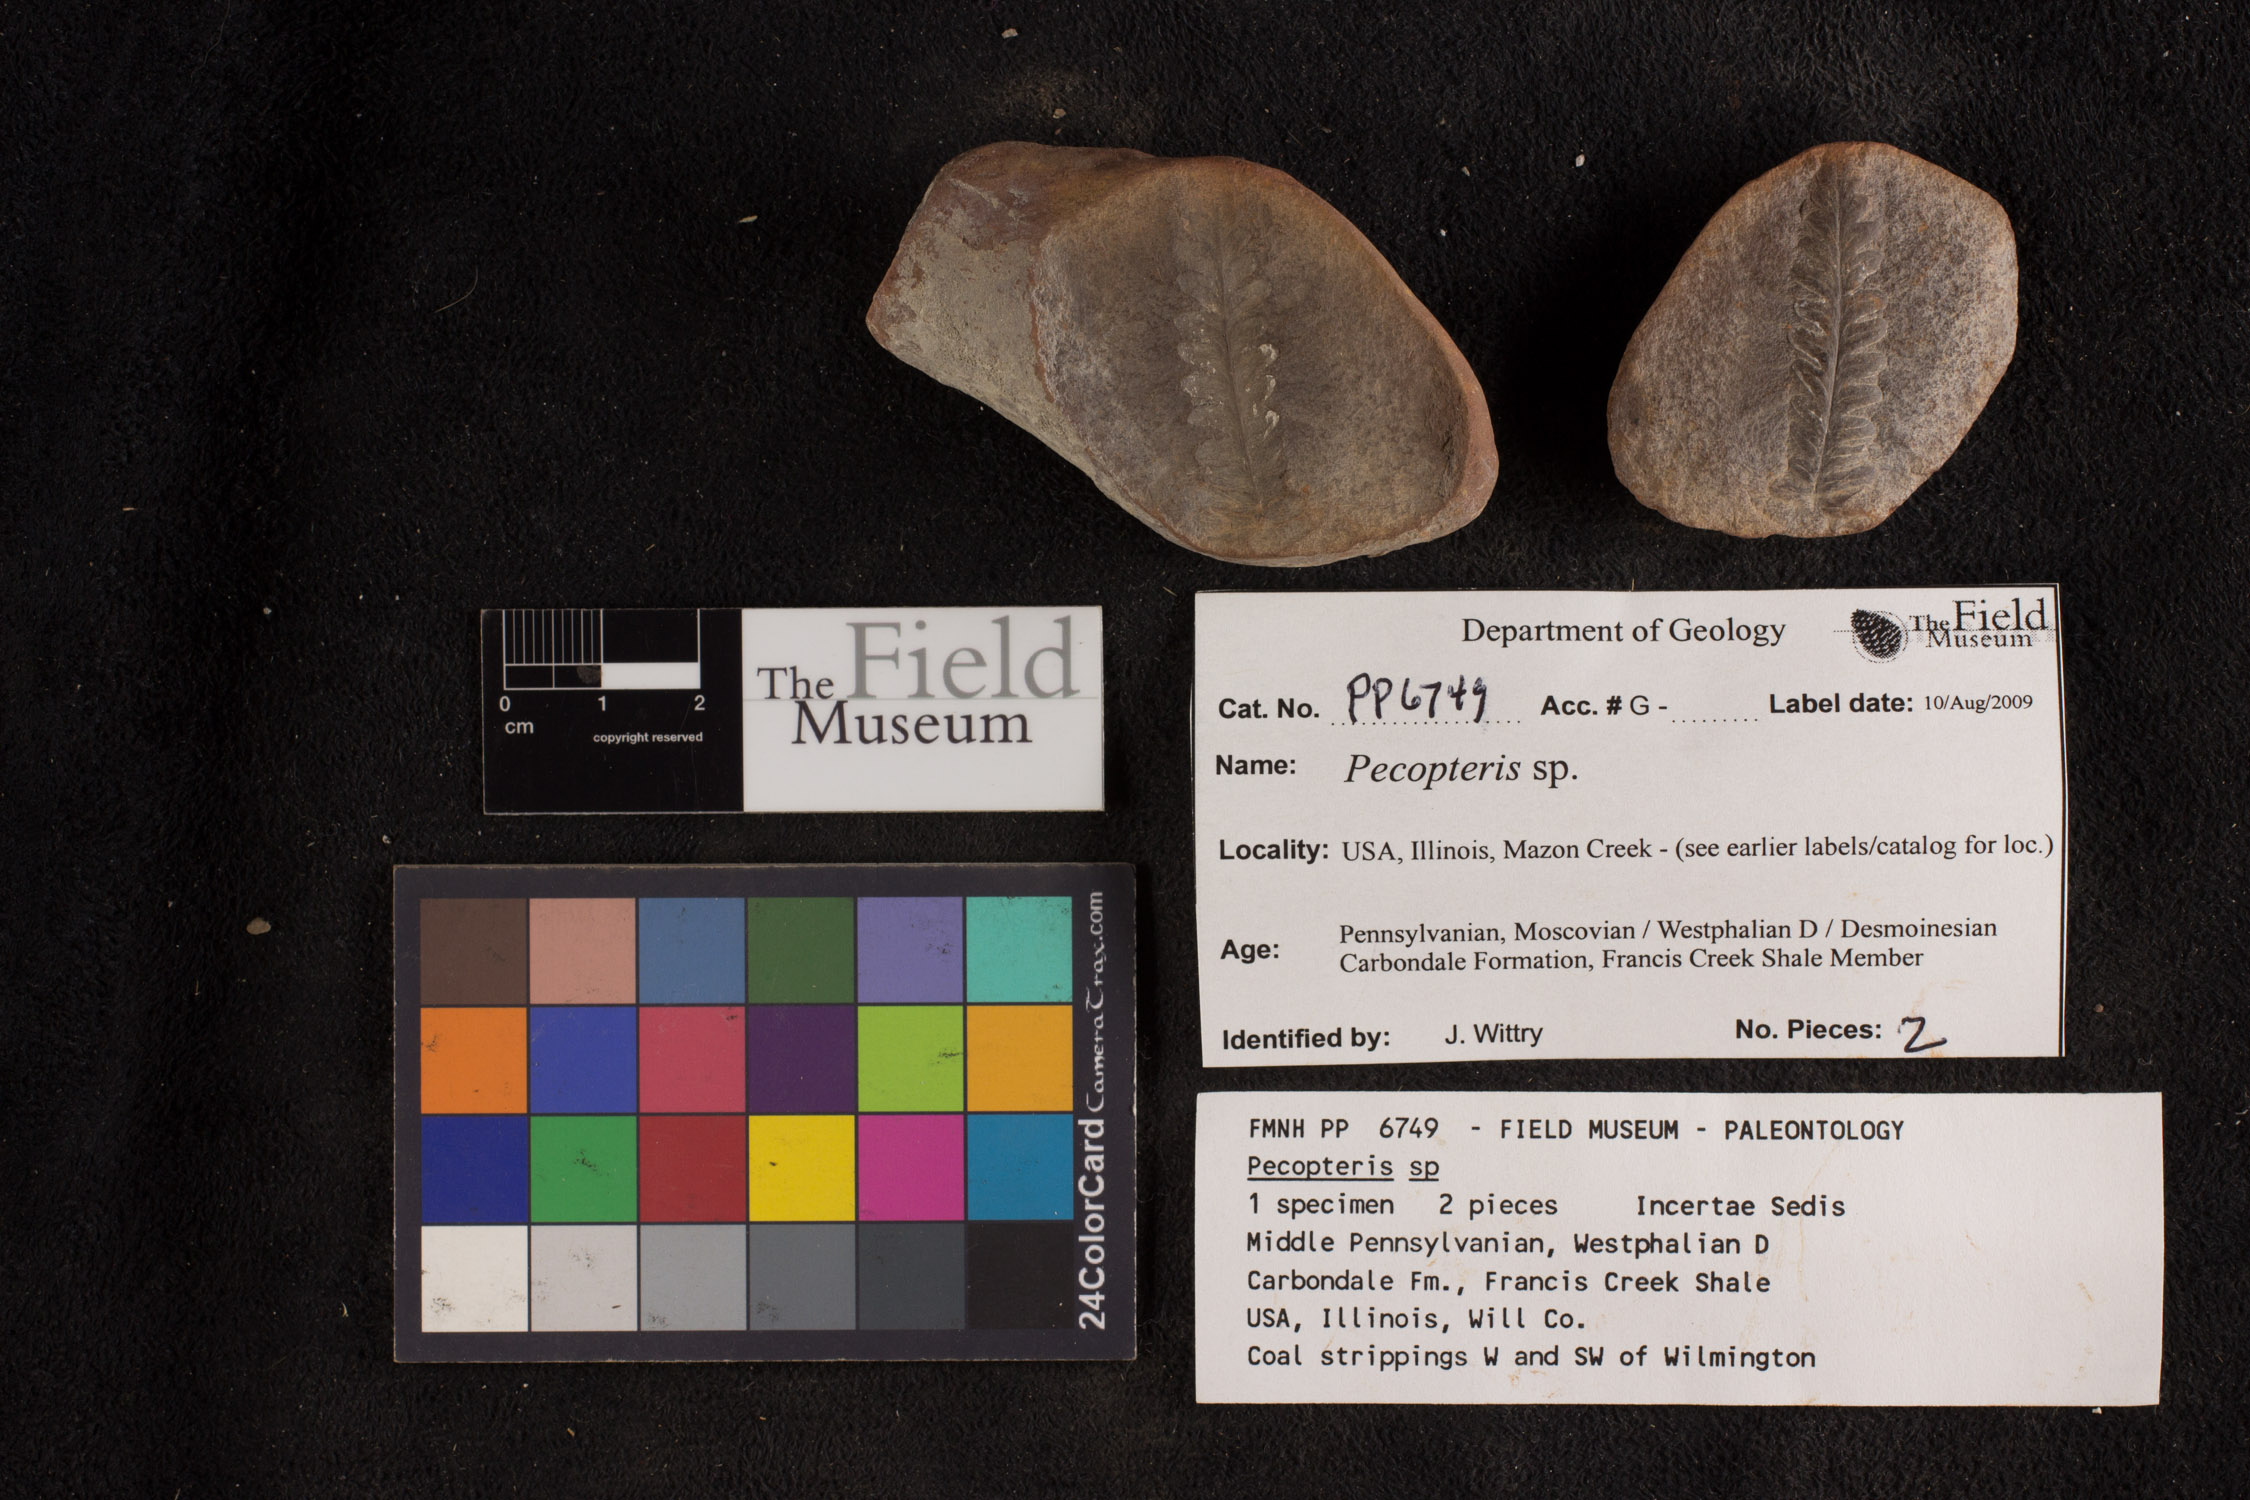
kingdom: Plantae
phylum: Tracheophyta
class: Polypodiopsida
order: Marattiales
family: Asterothecaceae
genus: Pecopteris
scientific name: Pecopteris
